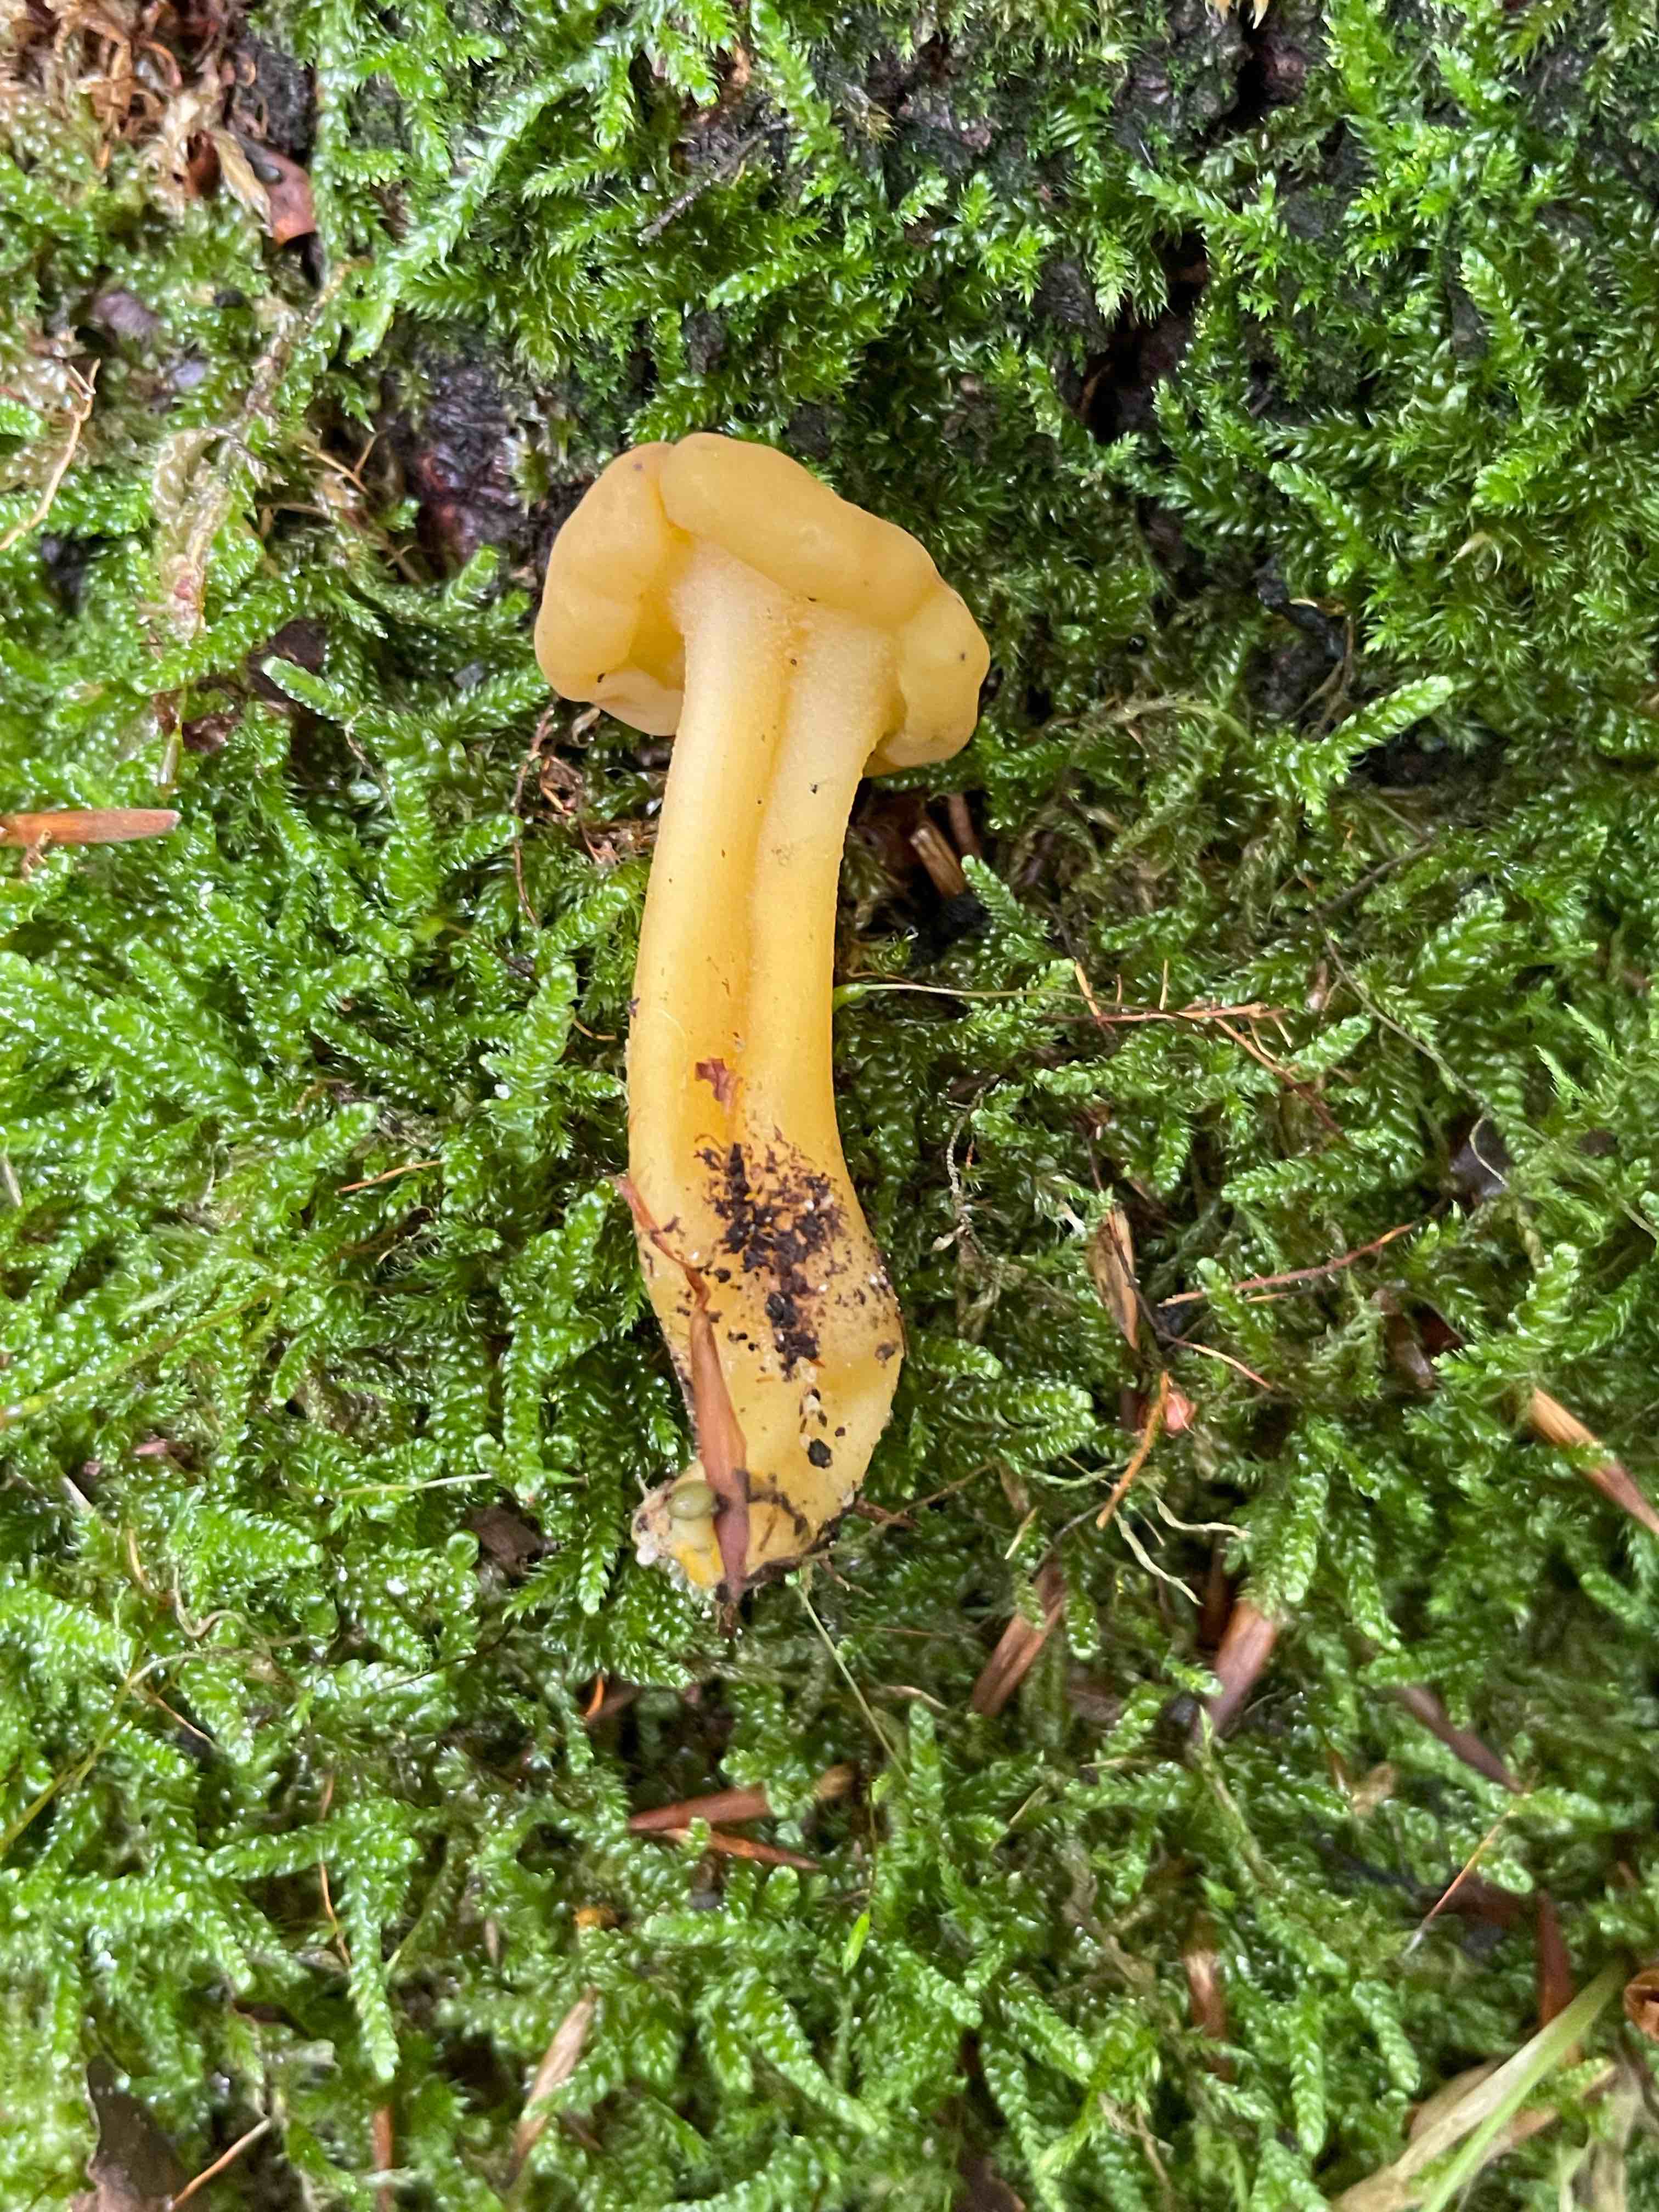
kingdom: Fungi
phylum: Ascomycota
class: Leotiomycetes
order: Leotiales
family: Leotiaceae
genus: Leotia
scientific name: Leotia lubrica
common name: ravsvamp
